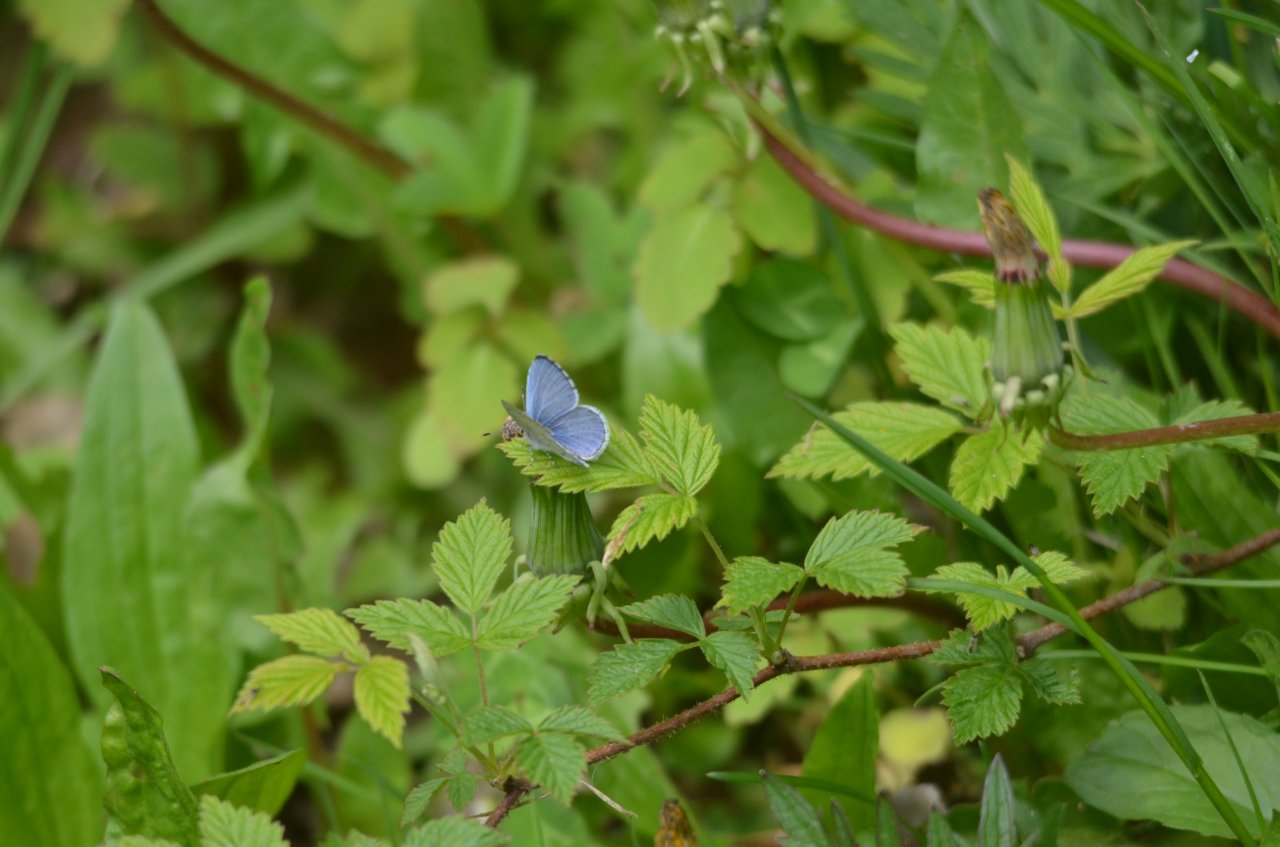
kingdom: Animalia
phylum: Arthropoda
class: Insecta
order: Lepidoptera
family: Lycaenidae
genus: Celastrina
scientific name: Celastrina
